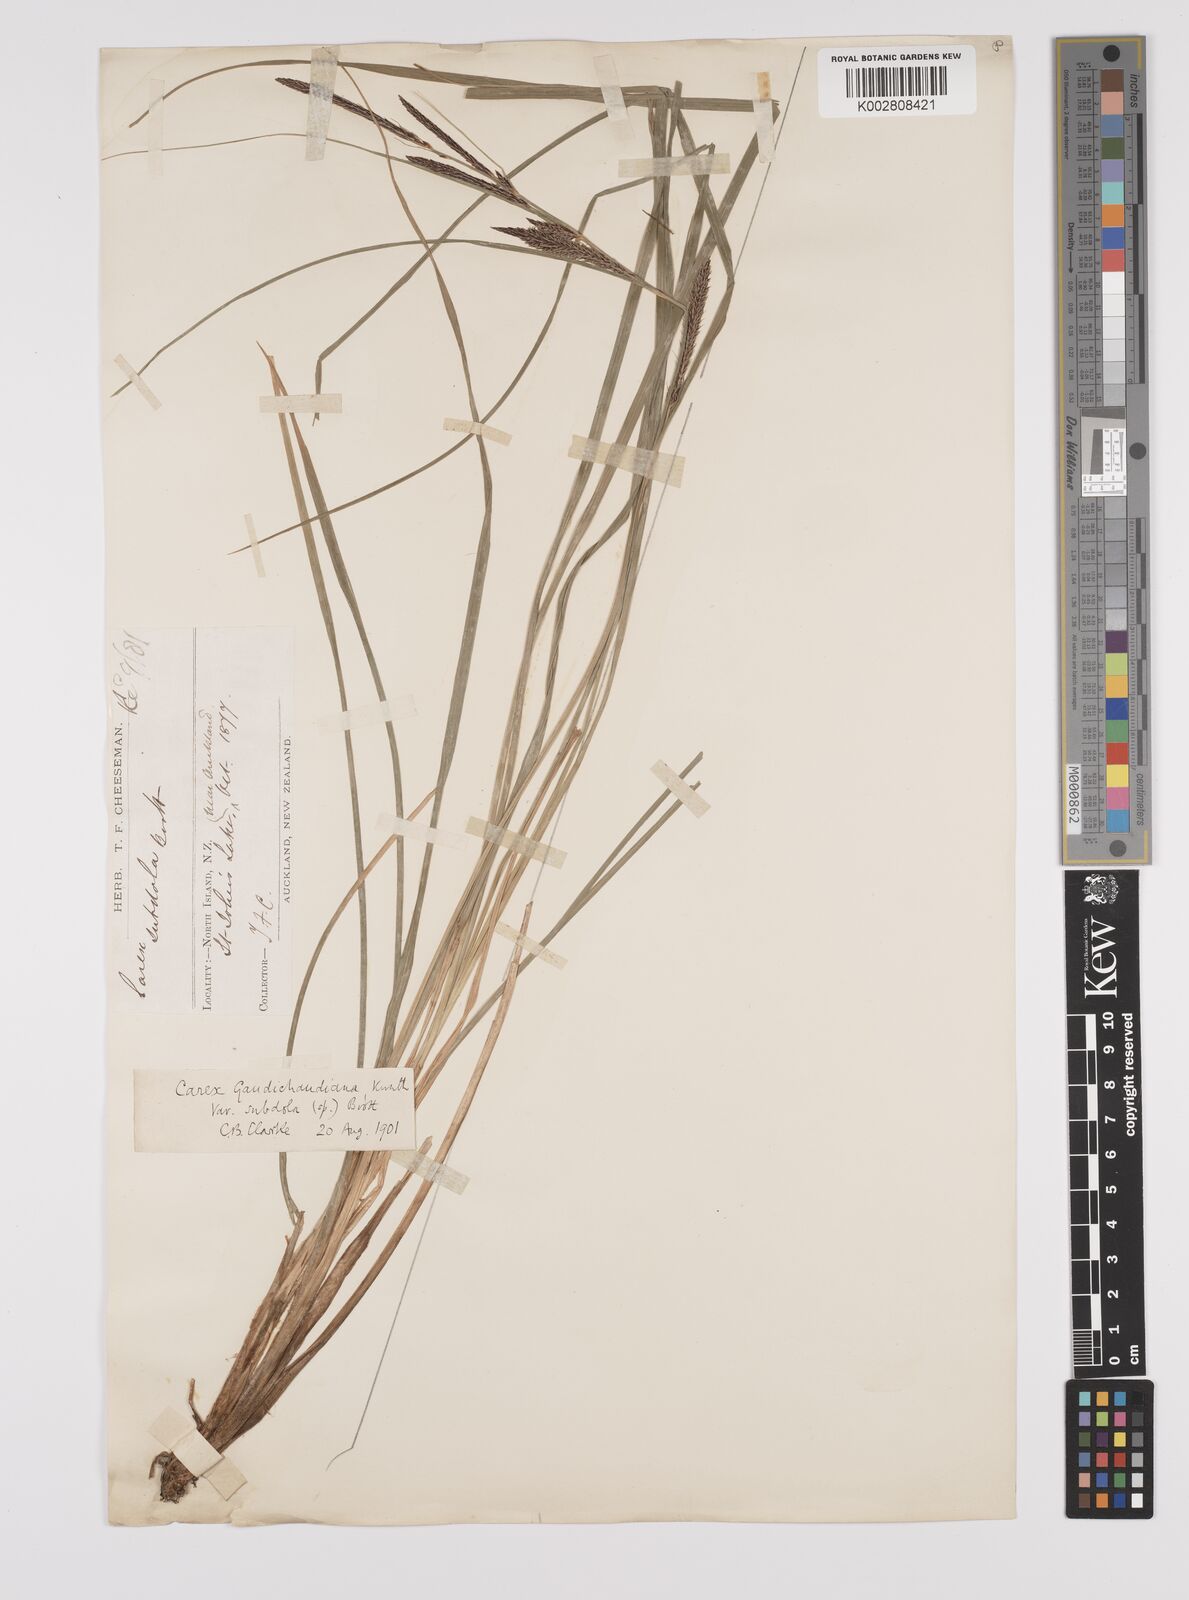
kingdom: Plantae
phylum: Tracheophyta
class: Liliopsida
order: Poales
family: Cyperaceae
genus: Carex
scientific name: Carex subdola
